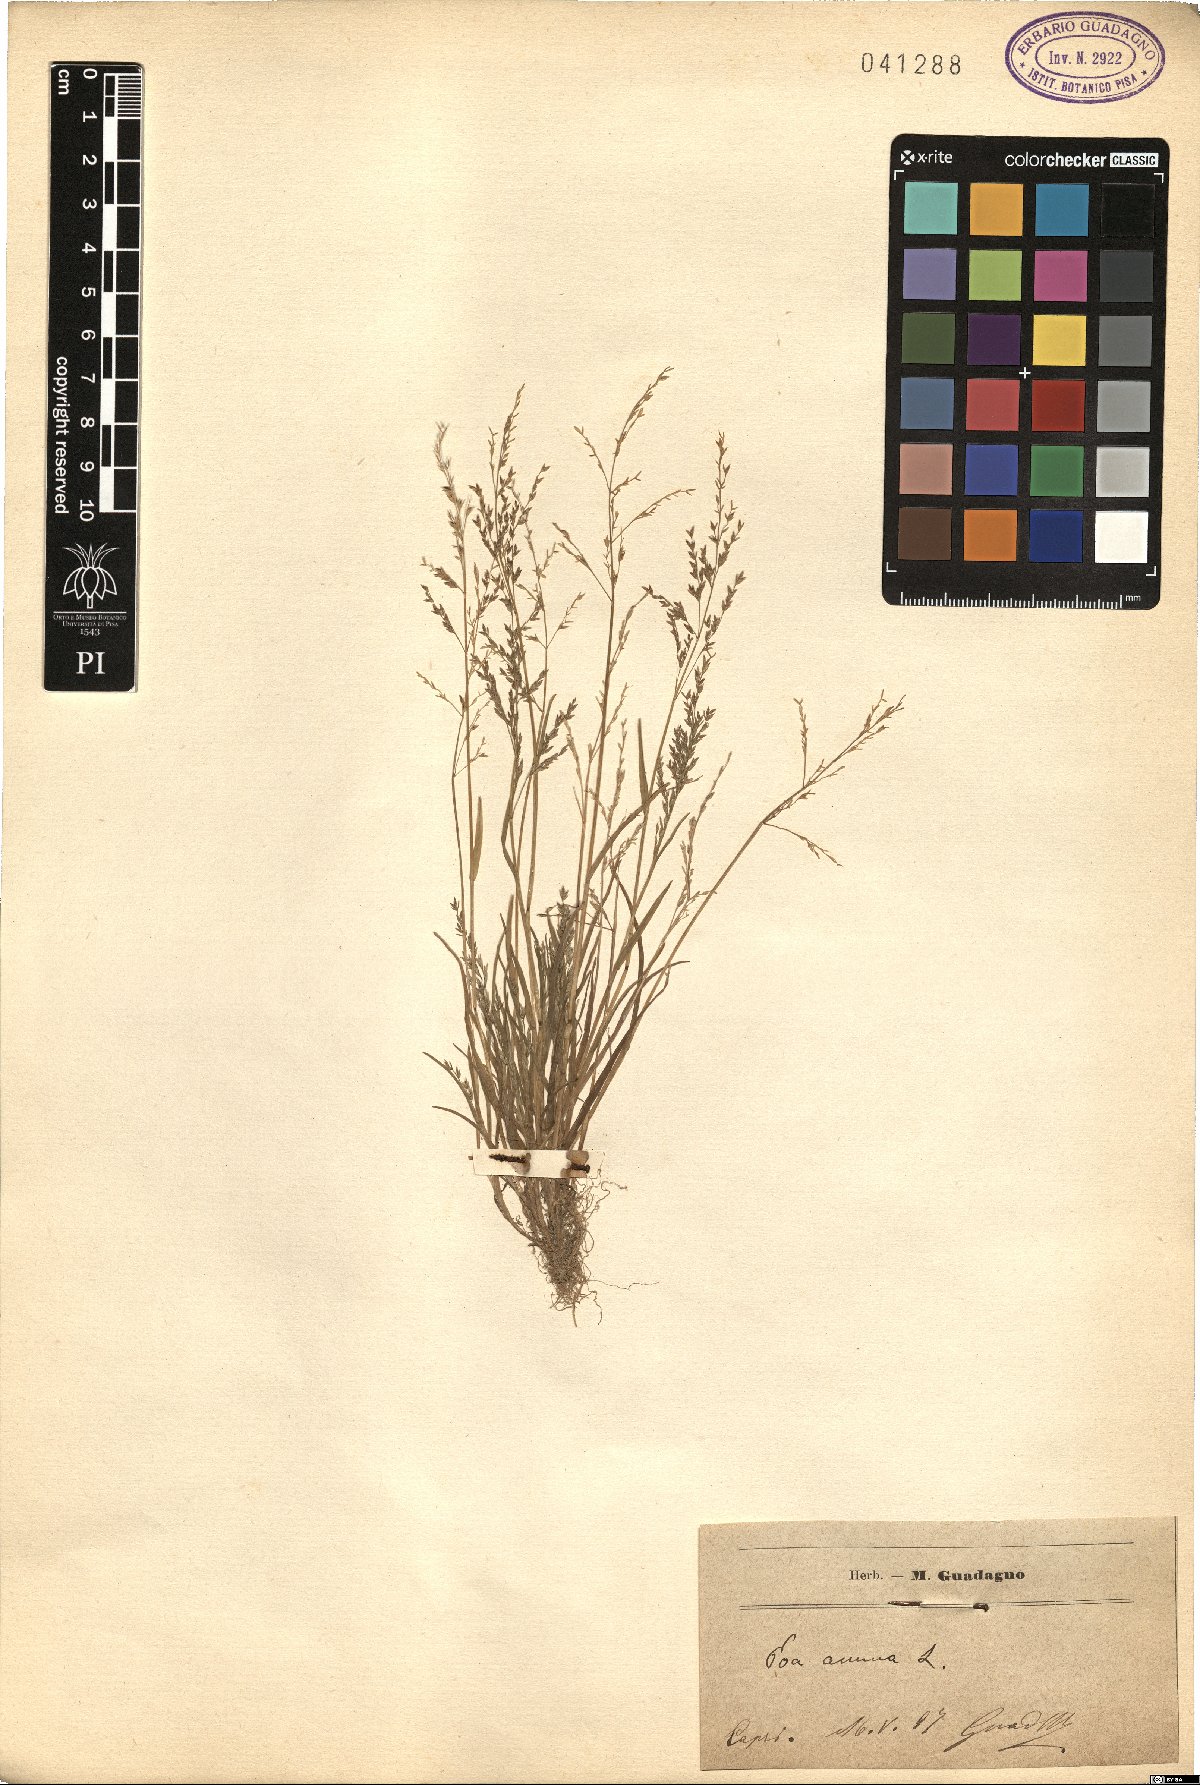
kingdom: Plantae
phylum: Tracheophyta
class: Liliopsida
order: Poales
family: Poaceae
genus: Poa
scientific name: Poa annua
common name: Annual bluegrass
